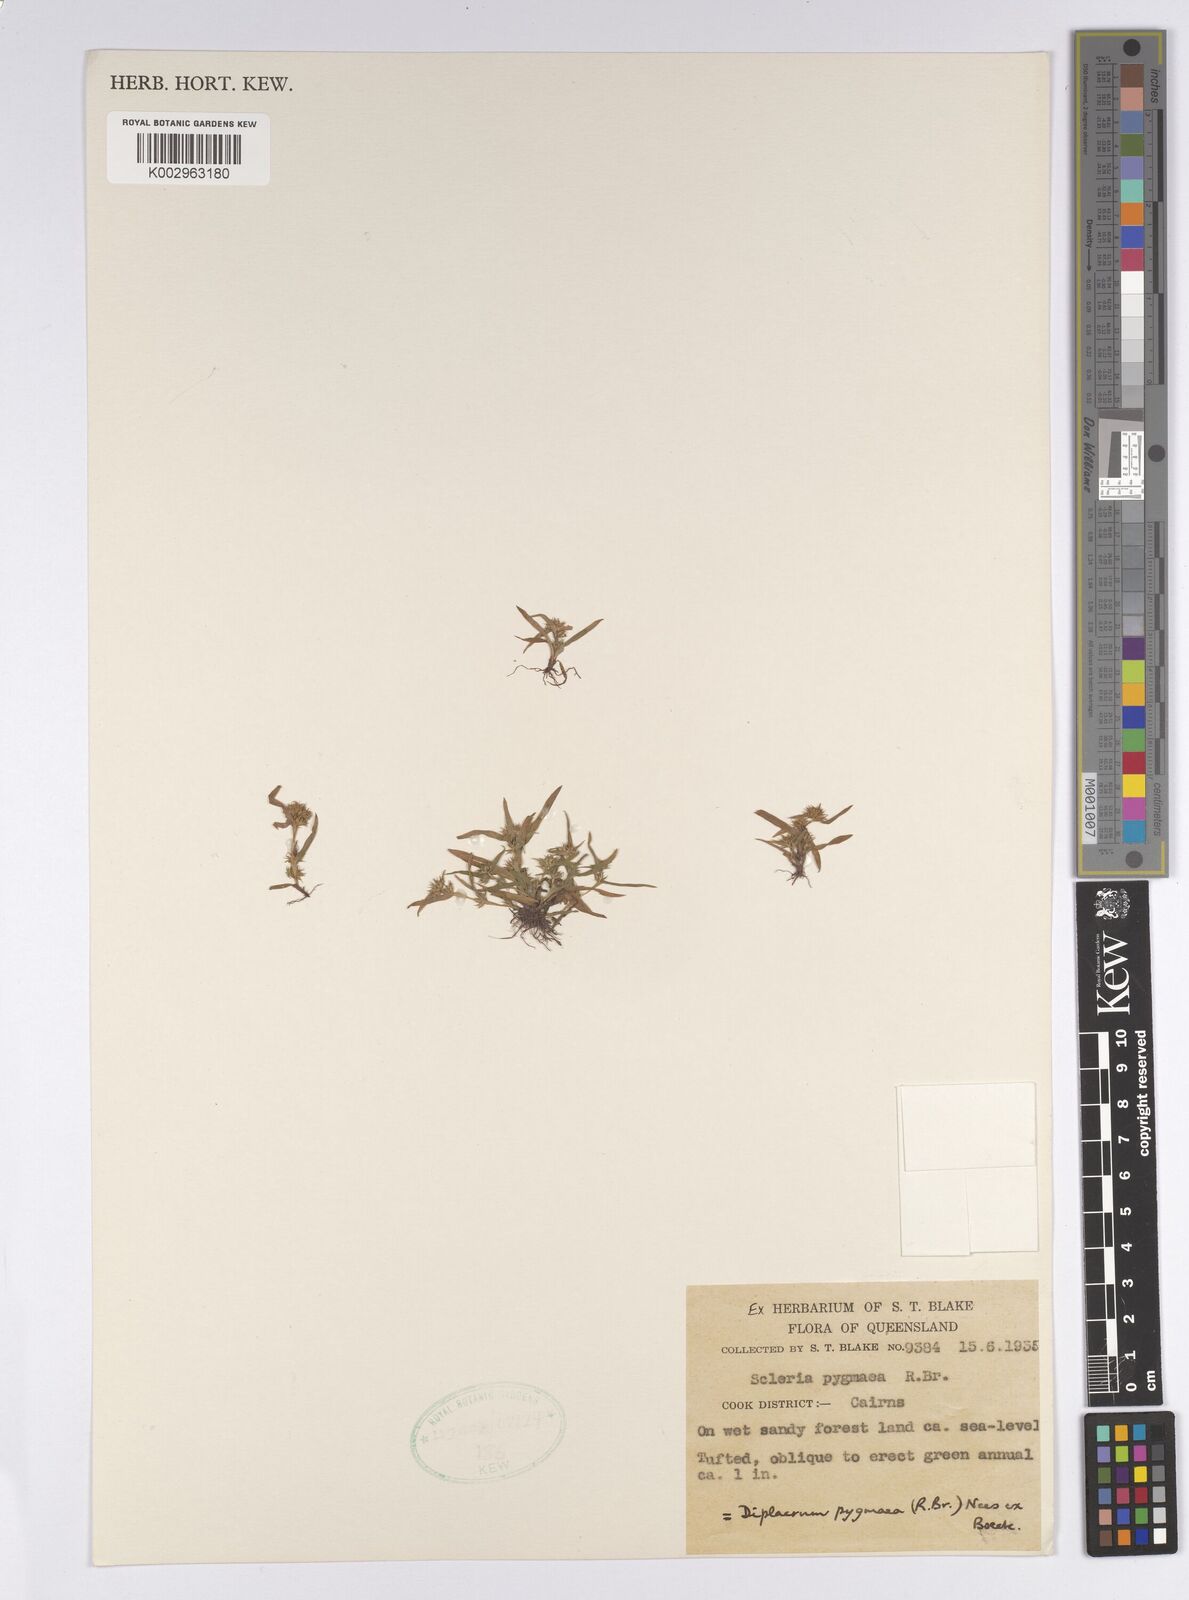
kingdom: Plantae
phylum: Tracheophyta
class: Liliopsida
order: Poales
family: Cyperaceae
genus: Diplacrum
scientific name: Diplacrum pygmaeum
